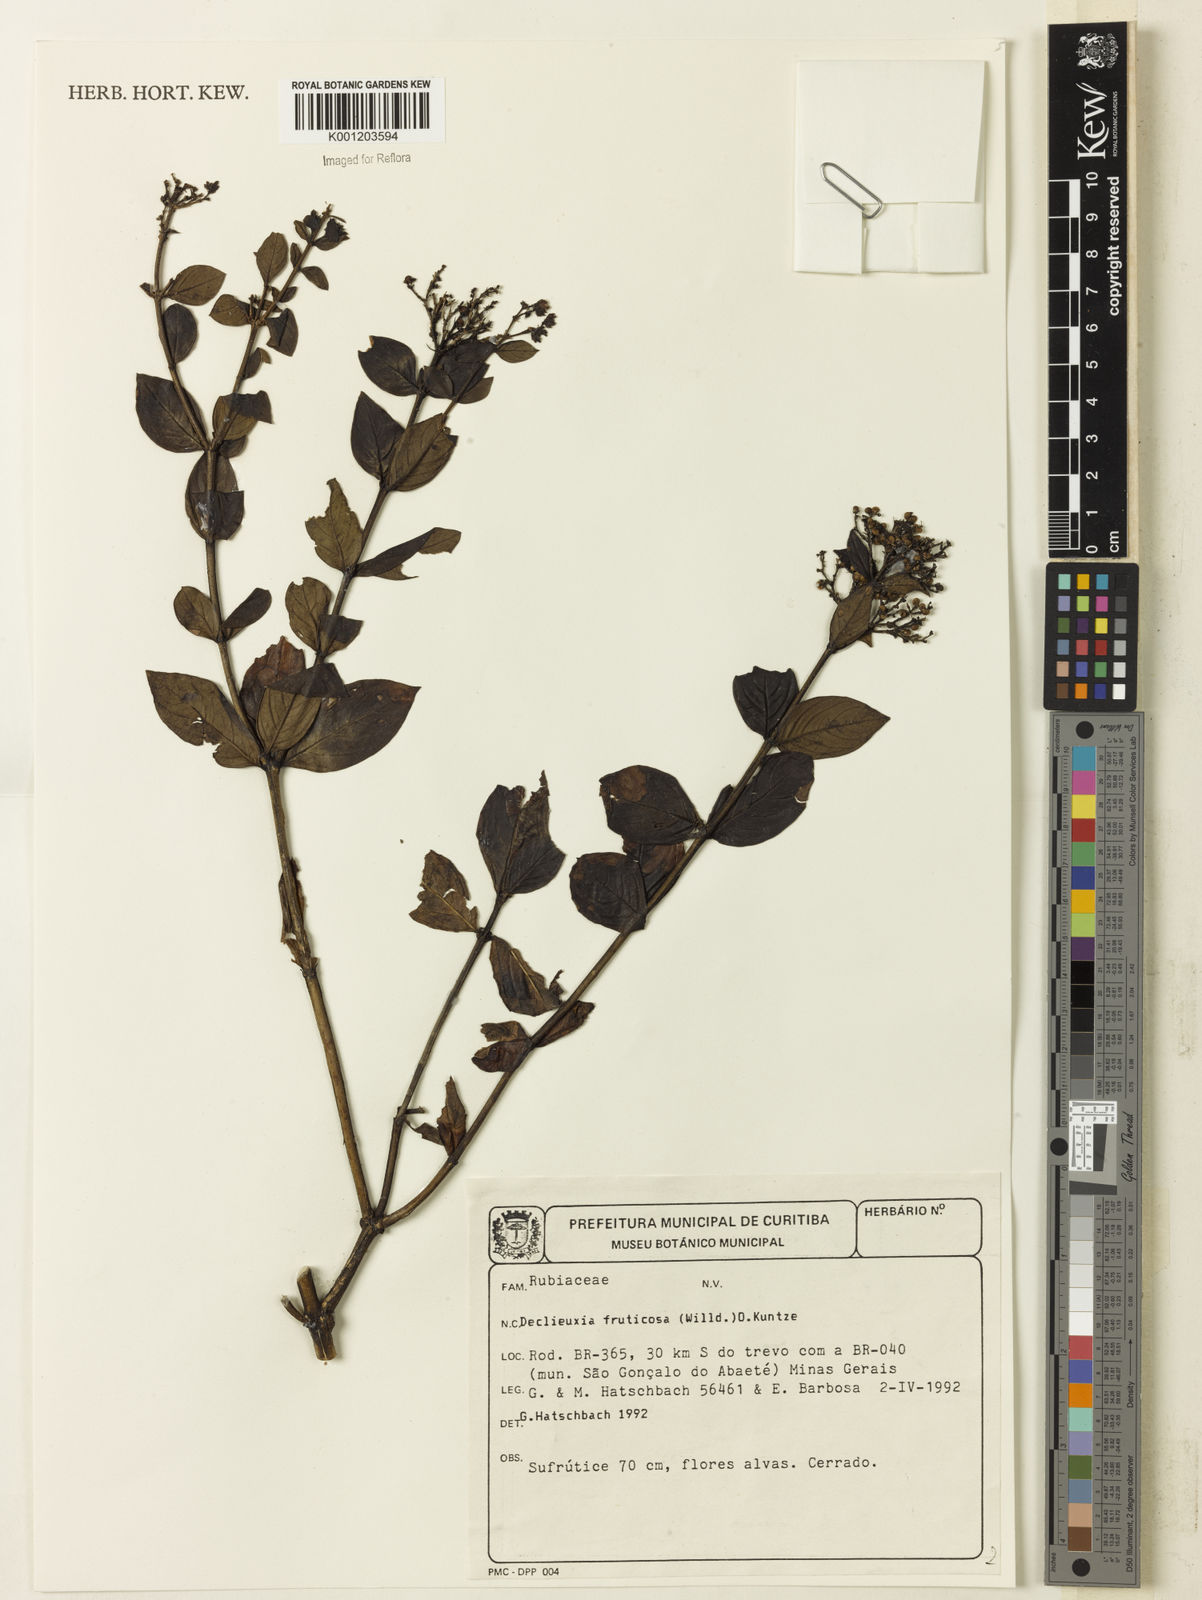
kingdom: Plantae
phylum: Tracheophyta
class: Magnoliopsida
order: Gentianales
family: Rubiaceae
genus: Declieuxia
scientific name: Declieuxia fruticosa
